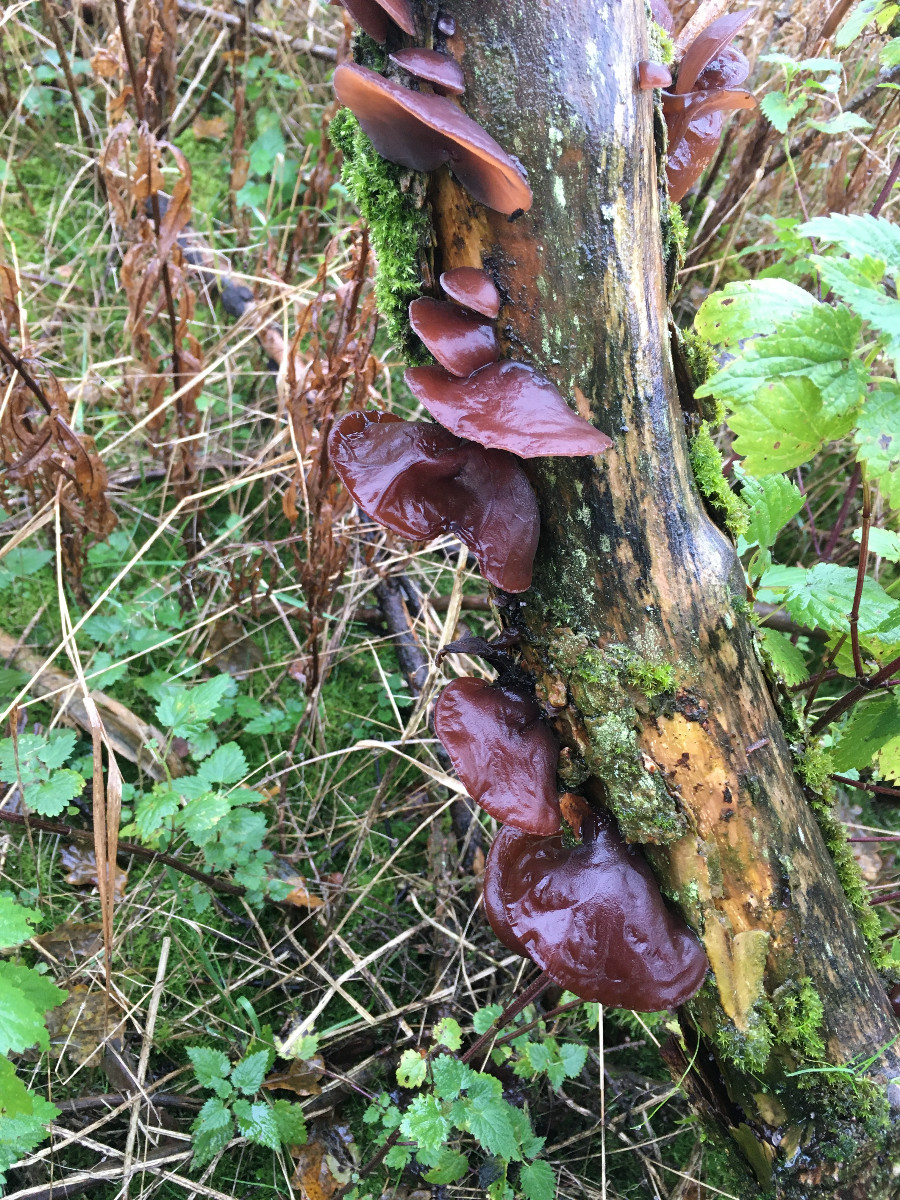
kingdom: Fungi
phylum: Basidiomycota
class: Agaricomycetes
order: Auriculariales
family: Auriculariaceae
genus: Auricularia
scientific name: Auricularia auricula-judae
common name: almindelig judasøre
